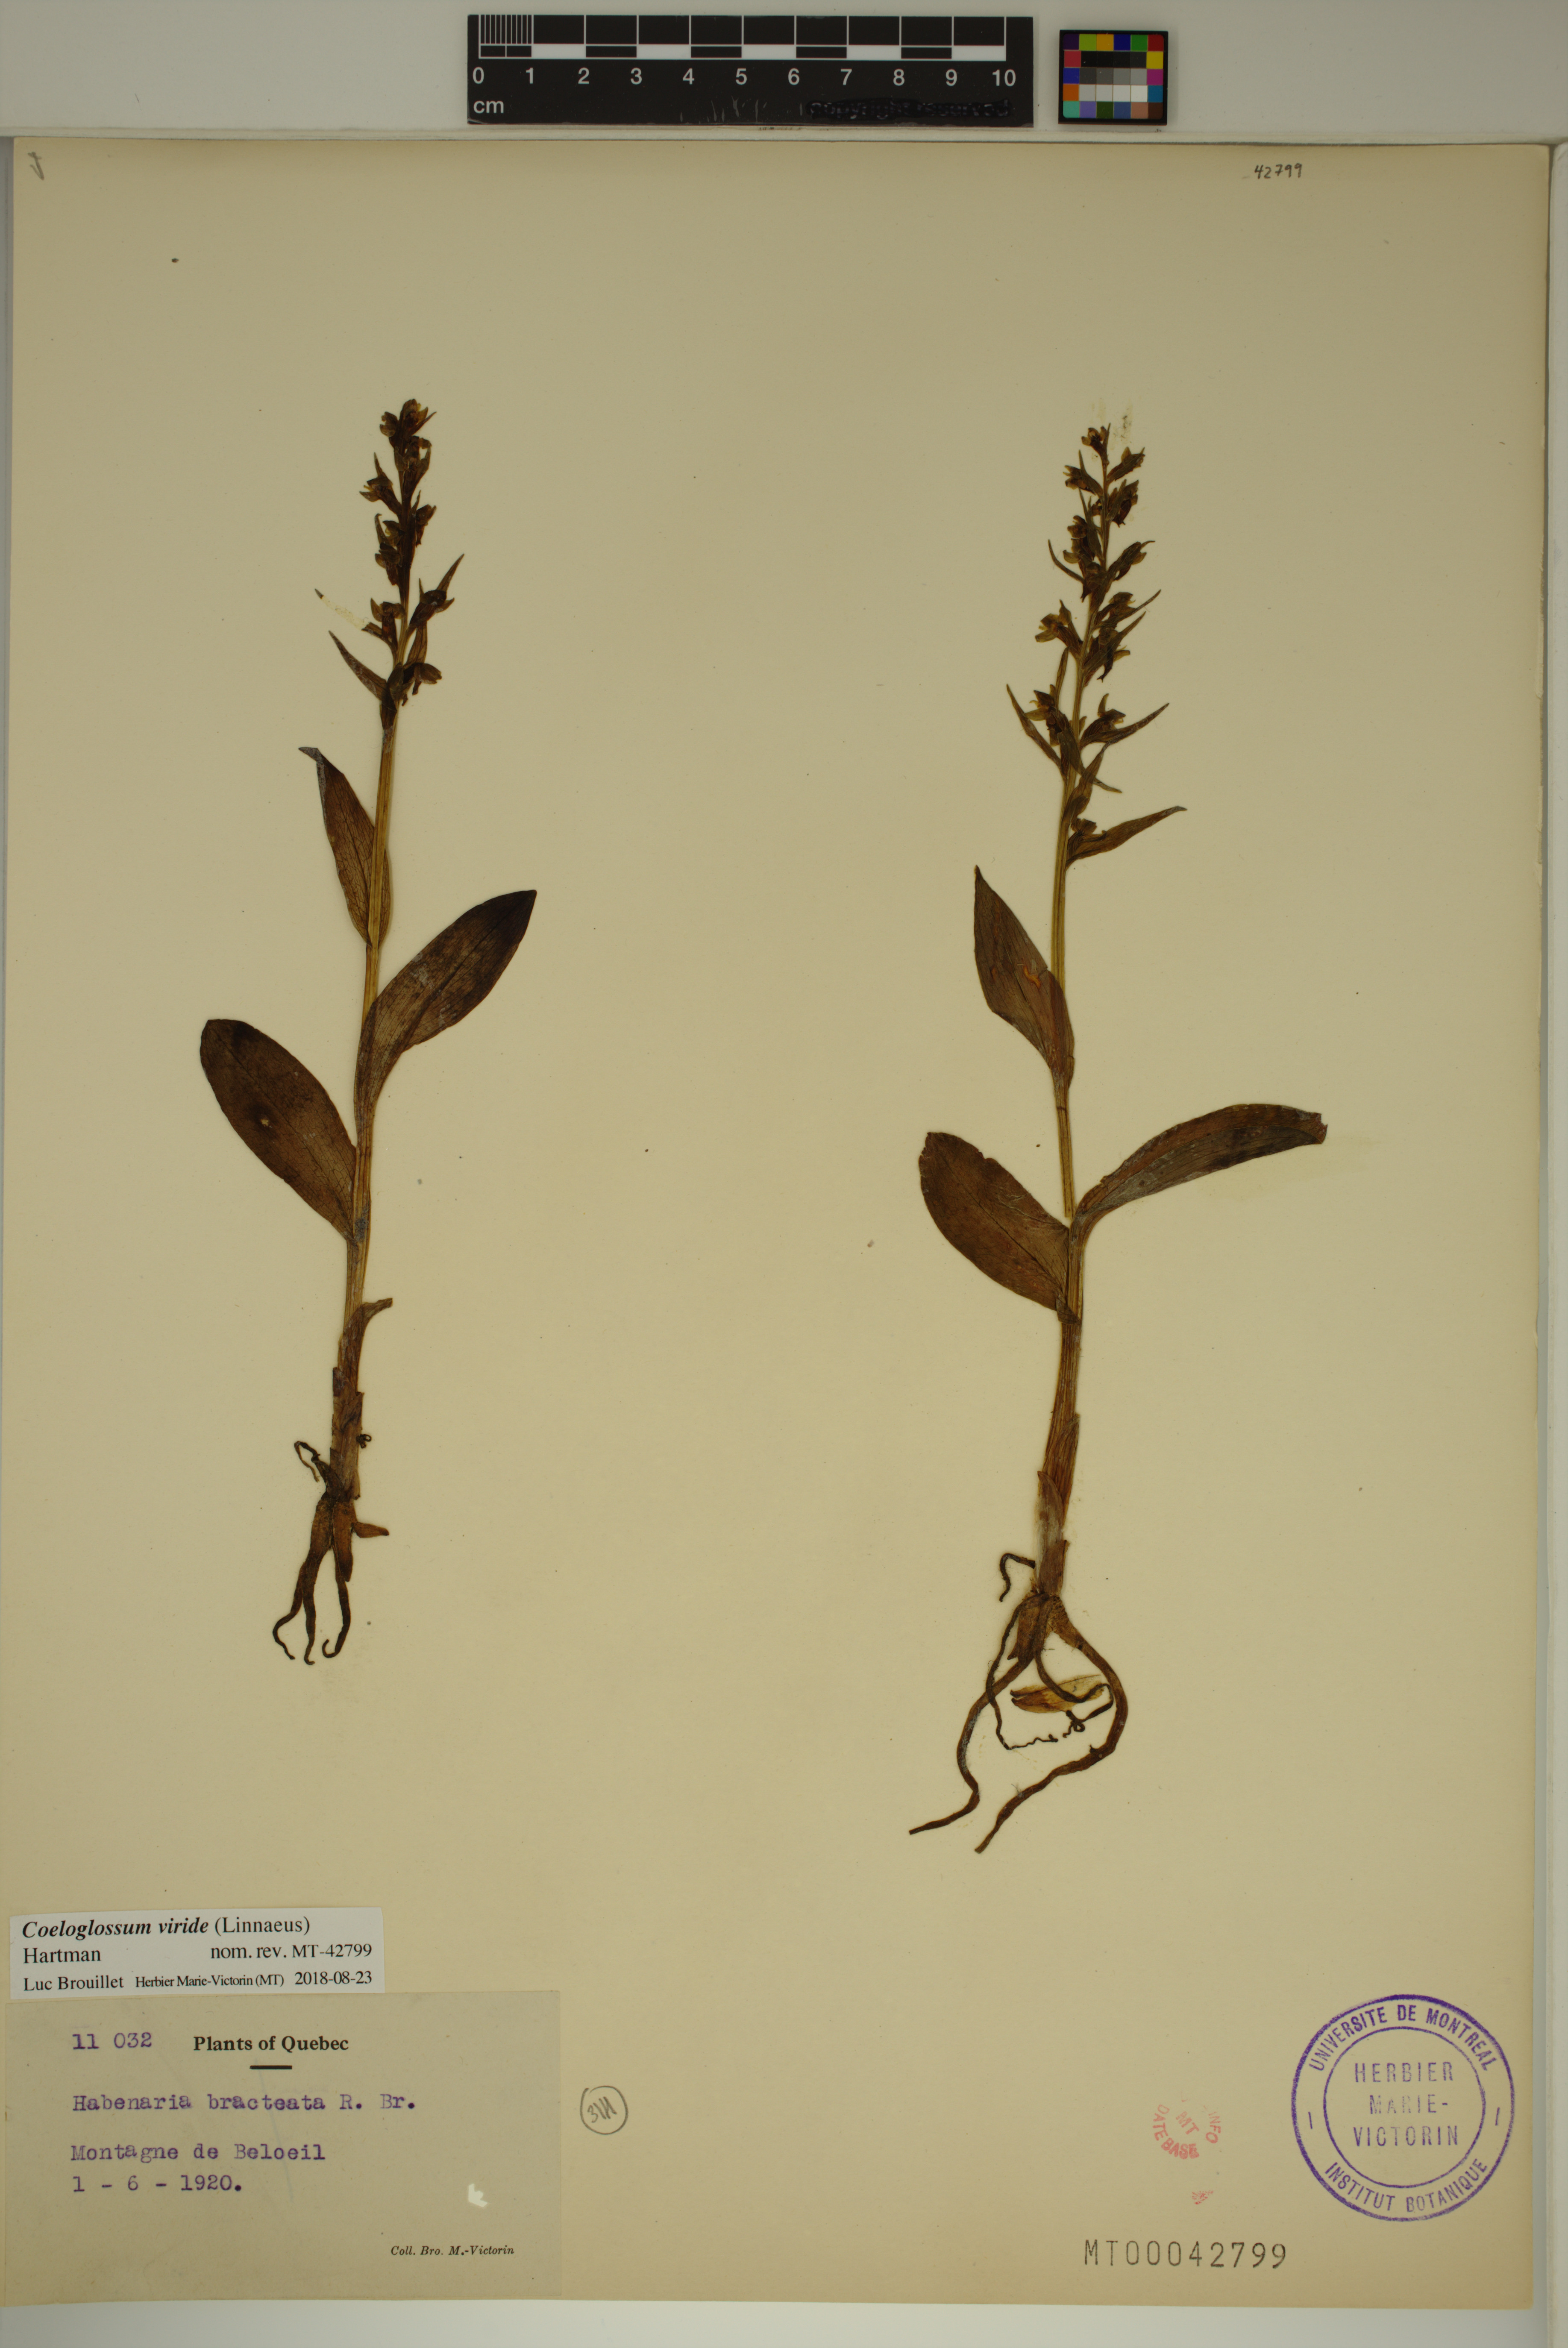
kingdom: Plantae
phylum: Tracheophyta
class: Liliopsida
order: Asparagales
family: Orchidaceae
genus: Dactylorhiza
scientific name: Dactylorhiza viridis
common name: Longbract frog orchid
